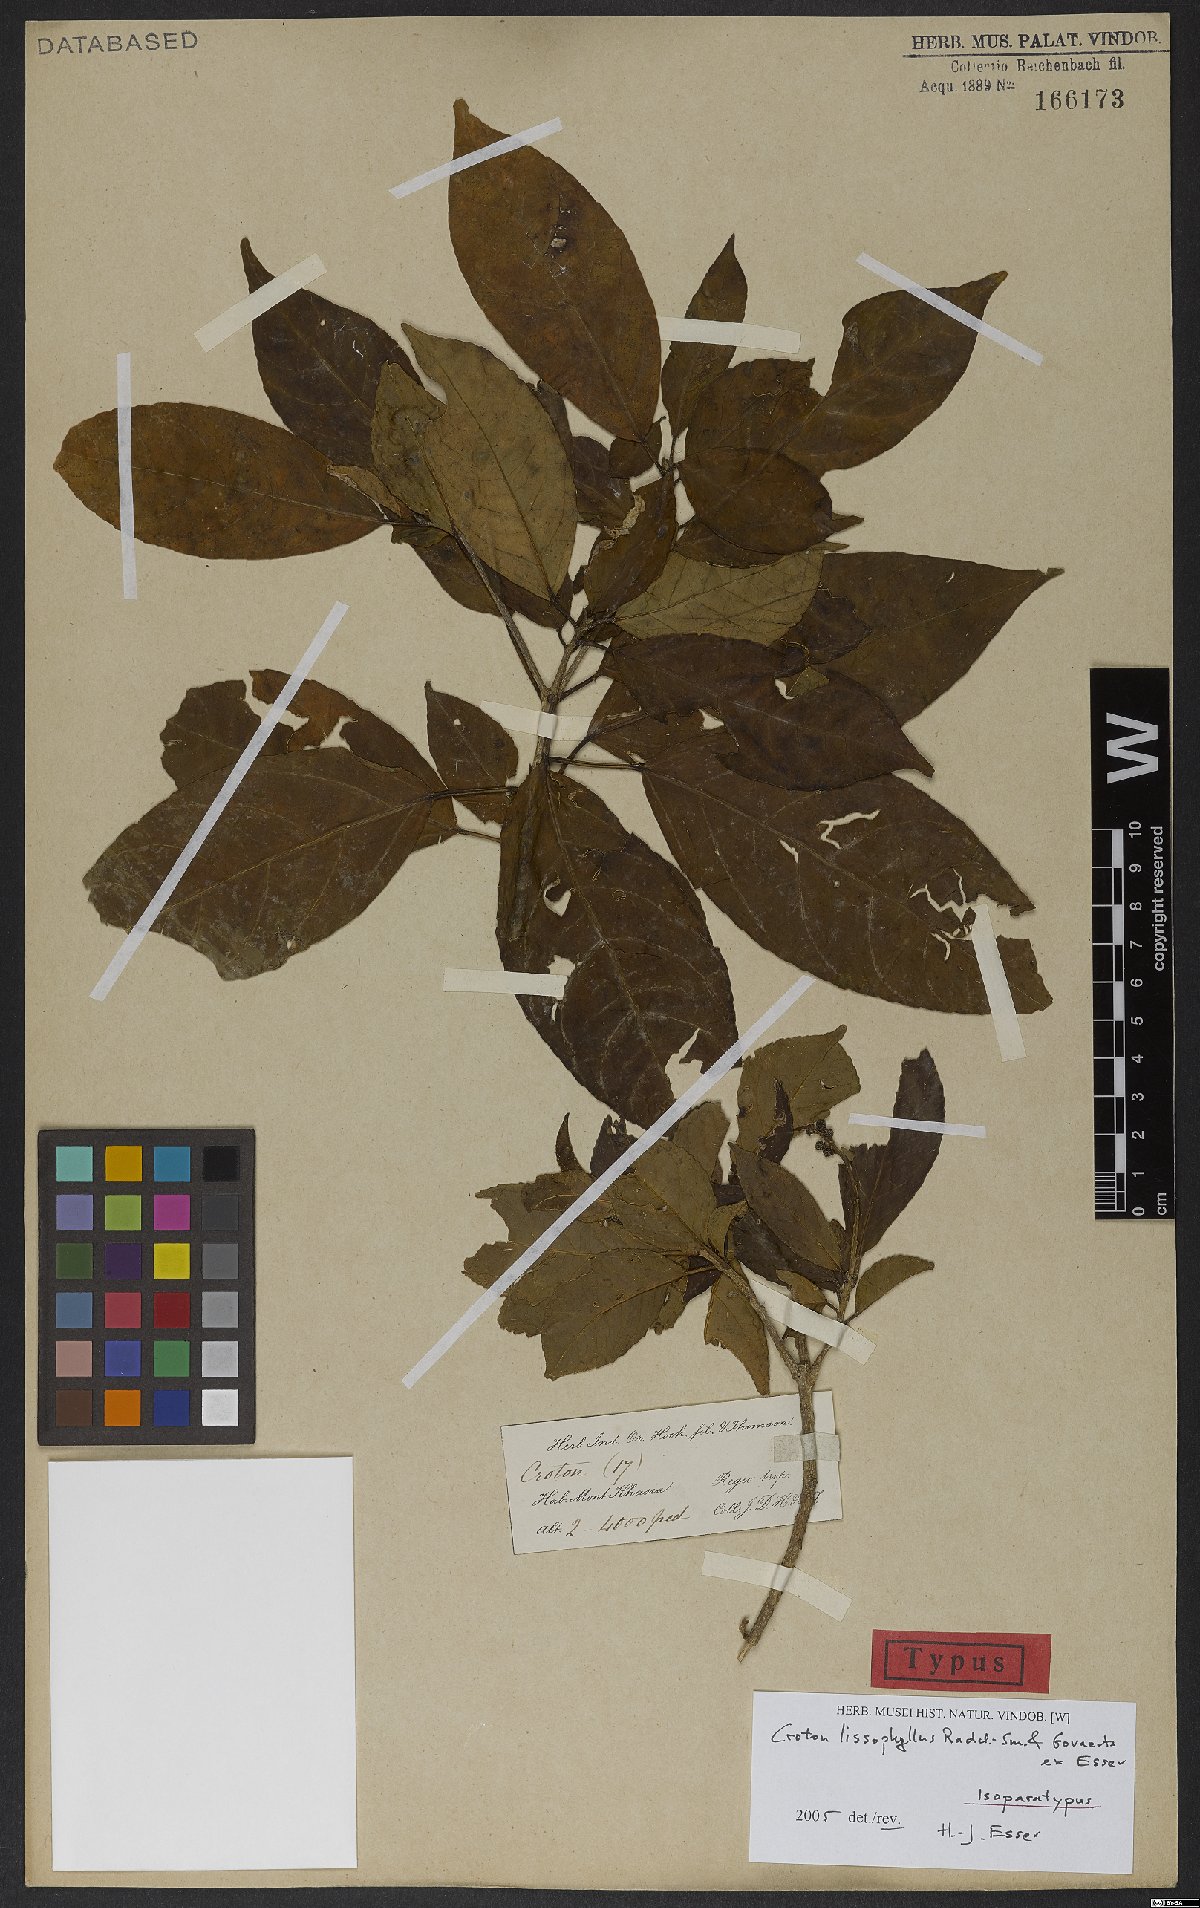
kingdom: Plantae
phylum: Tracheophyta
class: Magnoliopsida
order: Malpighiales
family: Euphorbiaceae
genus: Croton
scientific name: Croton lissophyllus
